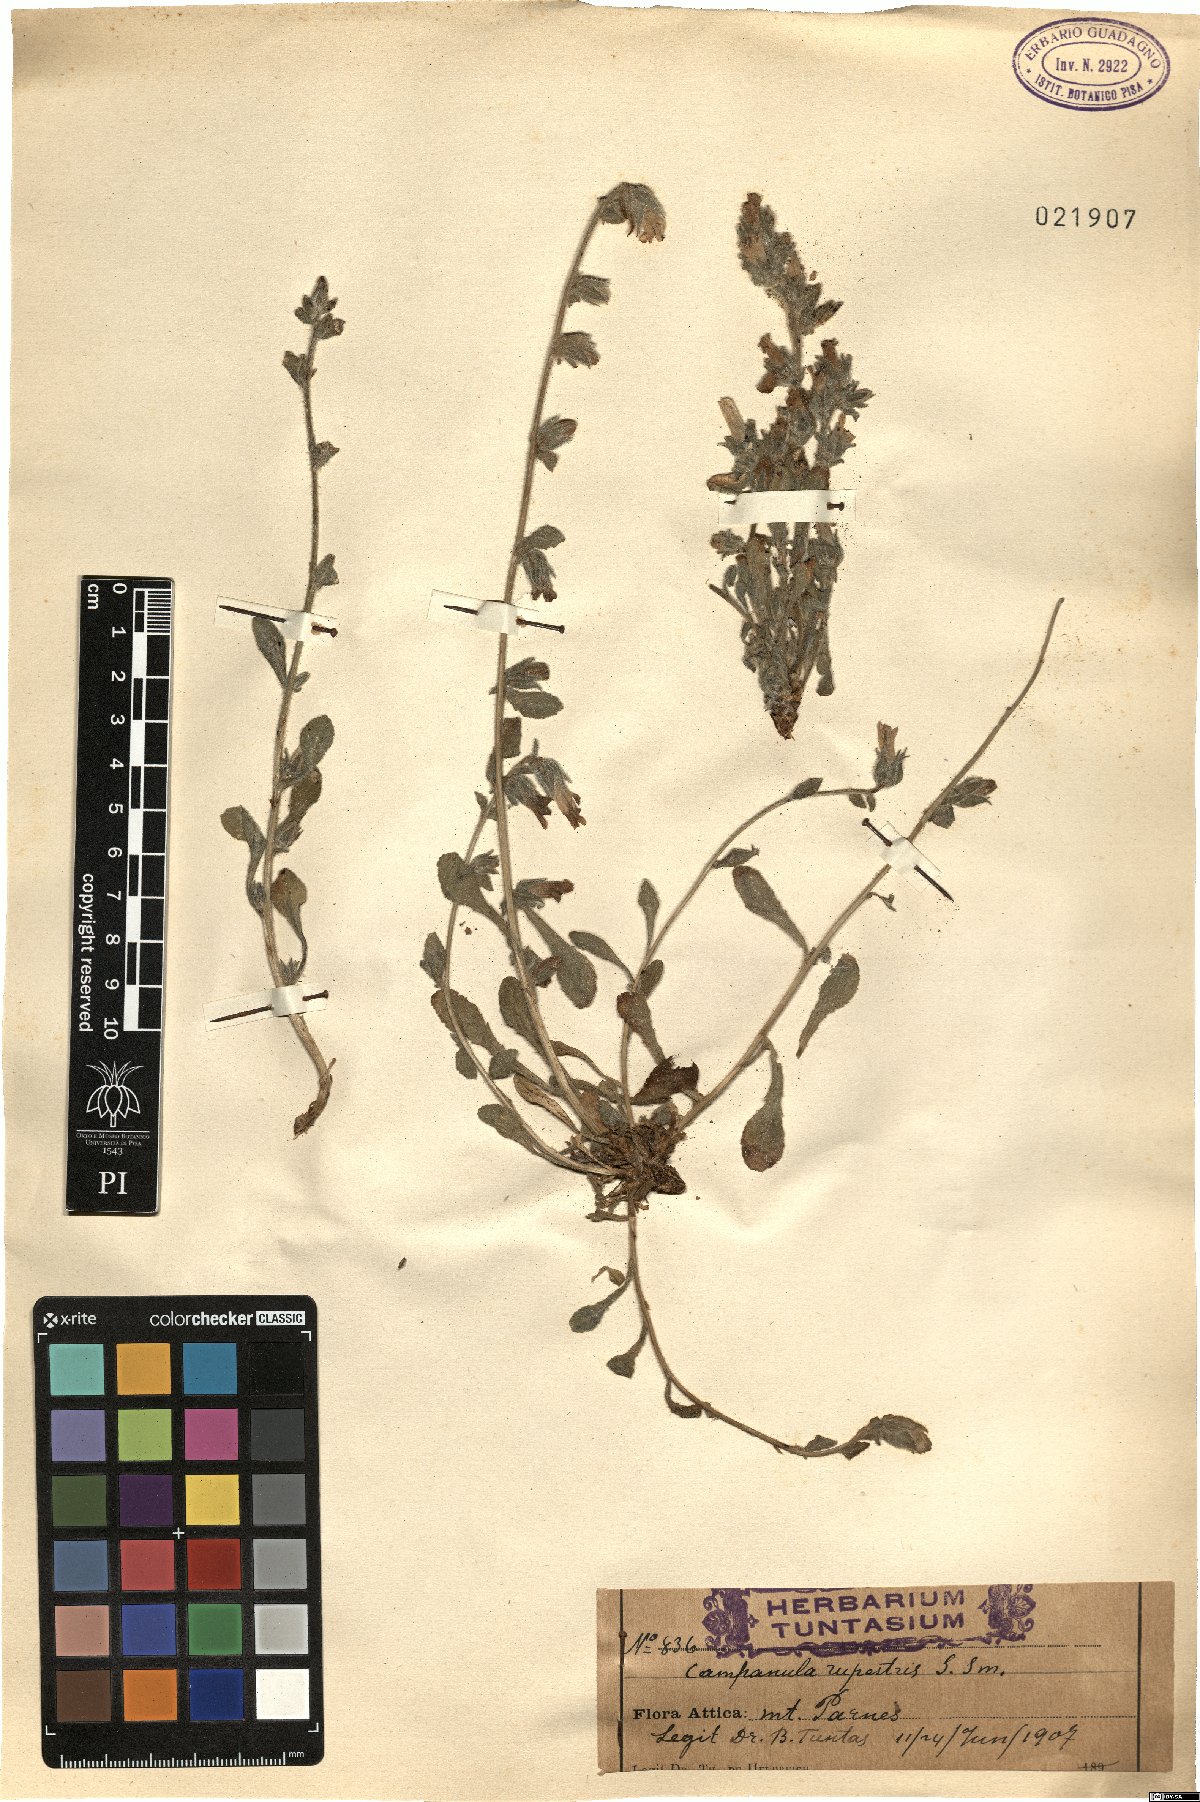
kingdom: Plantae
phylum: Tracheophyta
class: Magnoliopsida
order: Asterales
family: Campanulaceae
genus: Campanula
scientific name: Campanula rupestris
